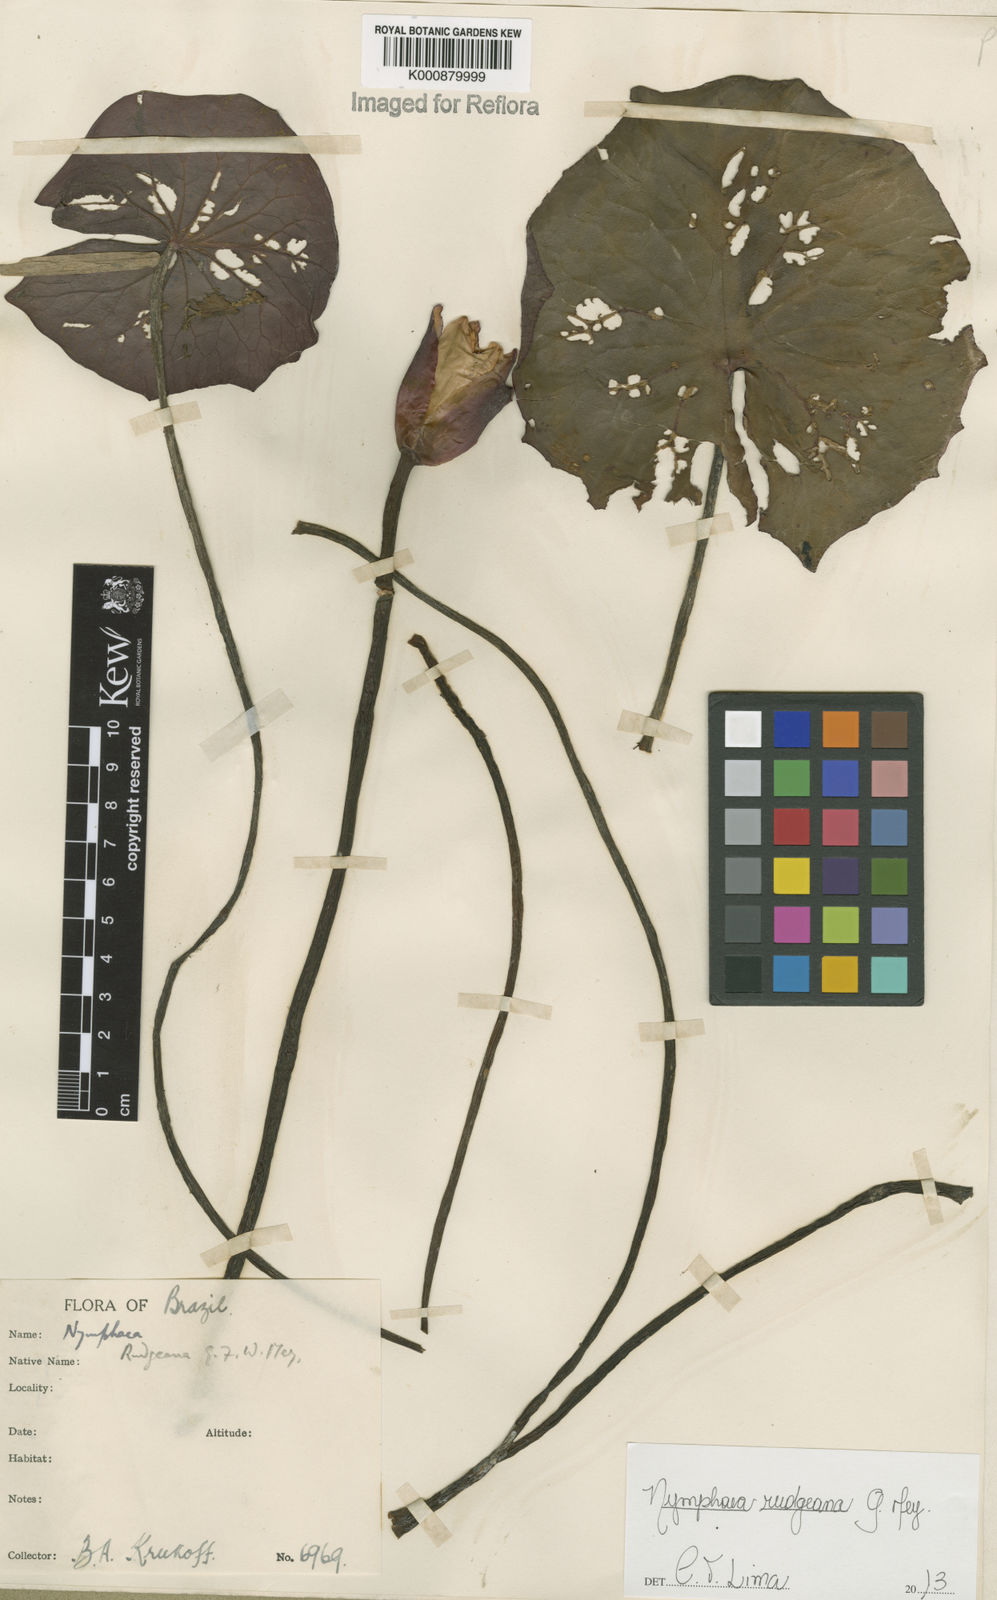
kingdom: Plantae
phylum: Tracheophyta
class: Magnoliopsida
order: Nymphaeales
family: Nymphaeaceae
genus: Nymphaea
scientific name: Nymphaea rudgeana
